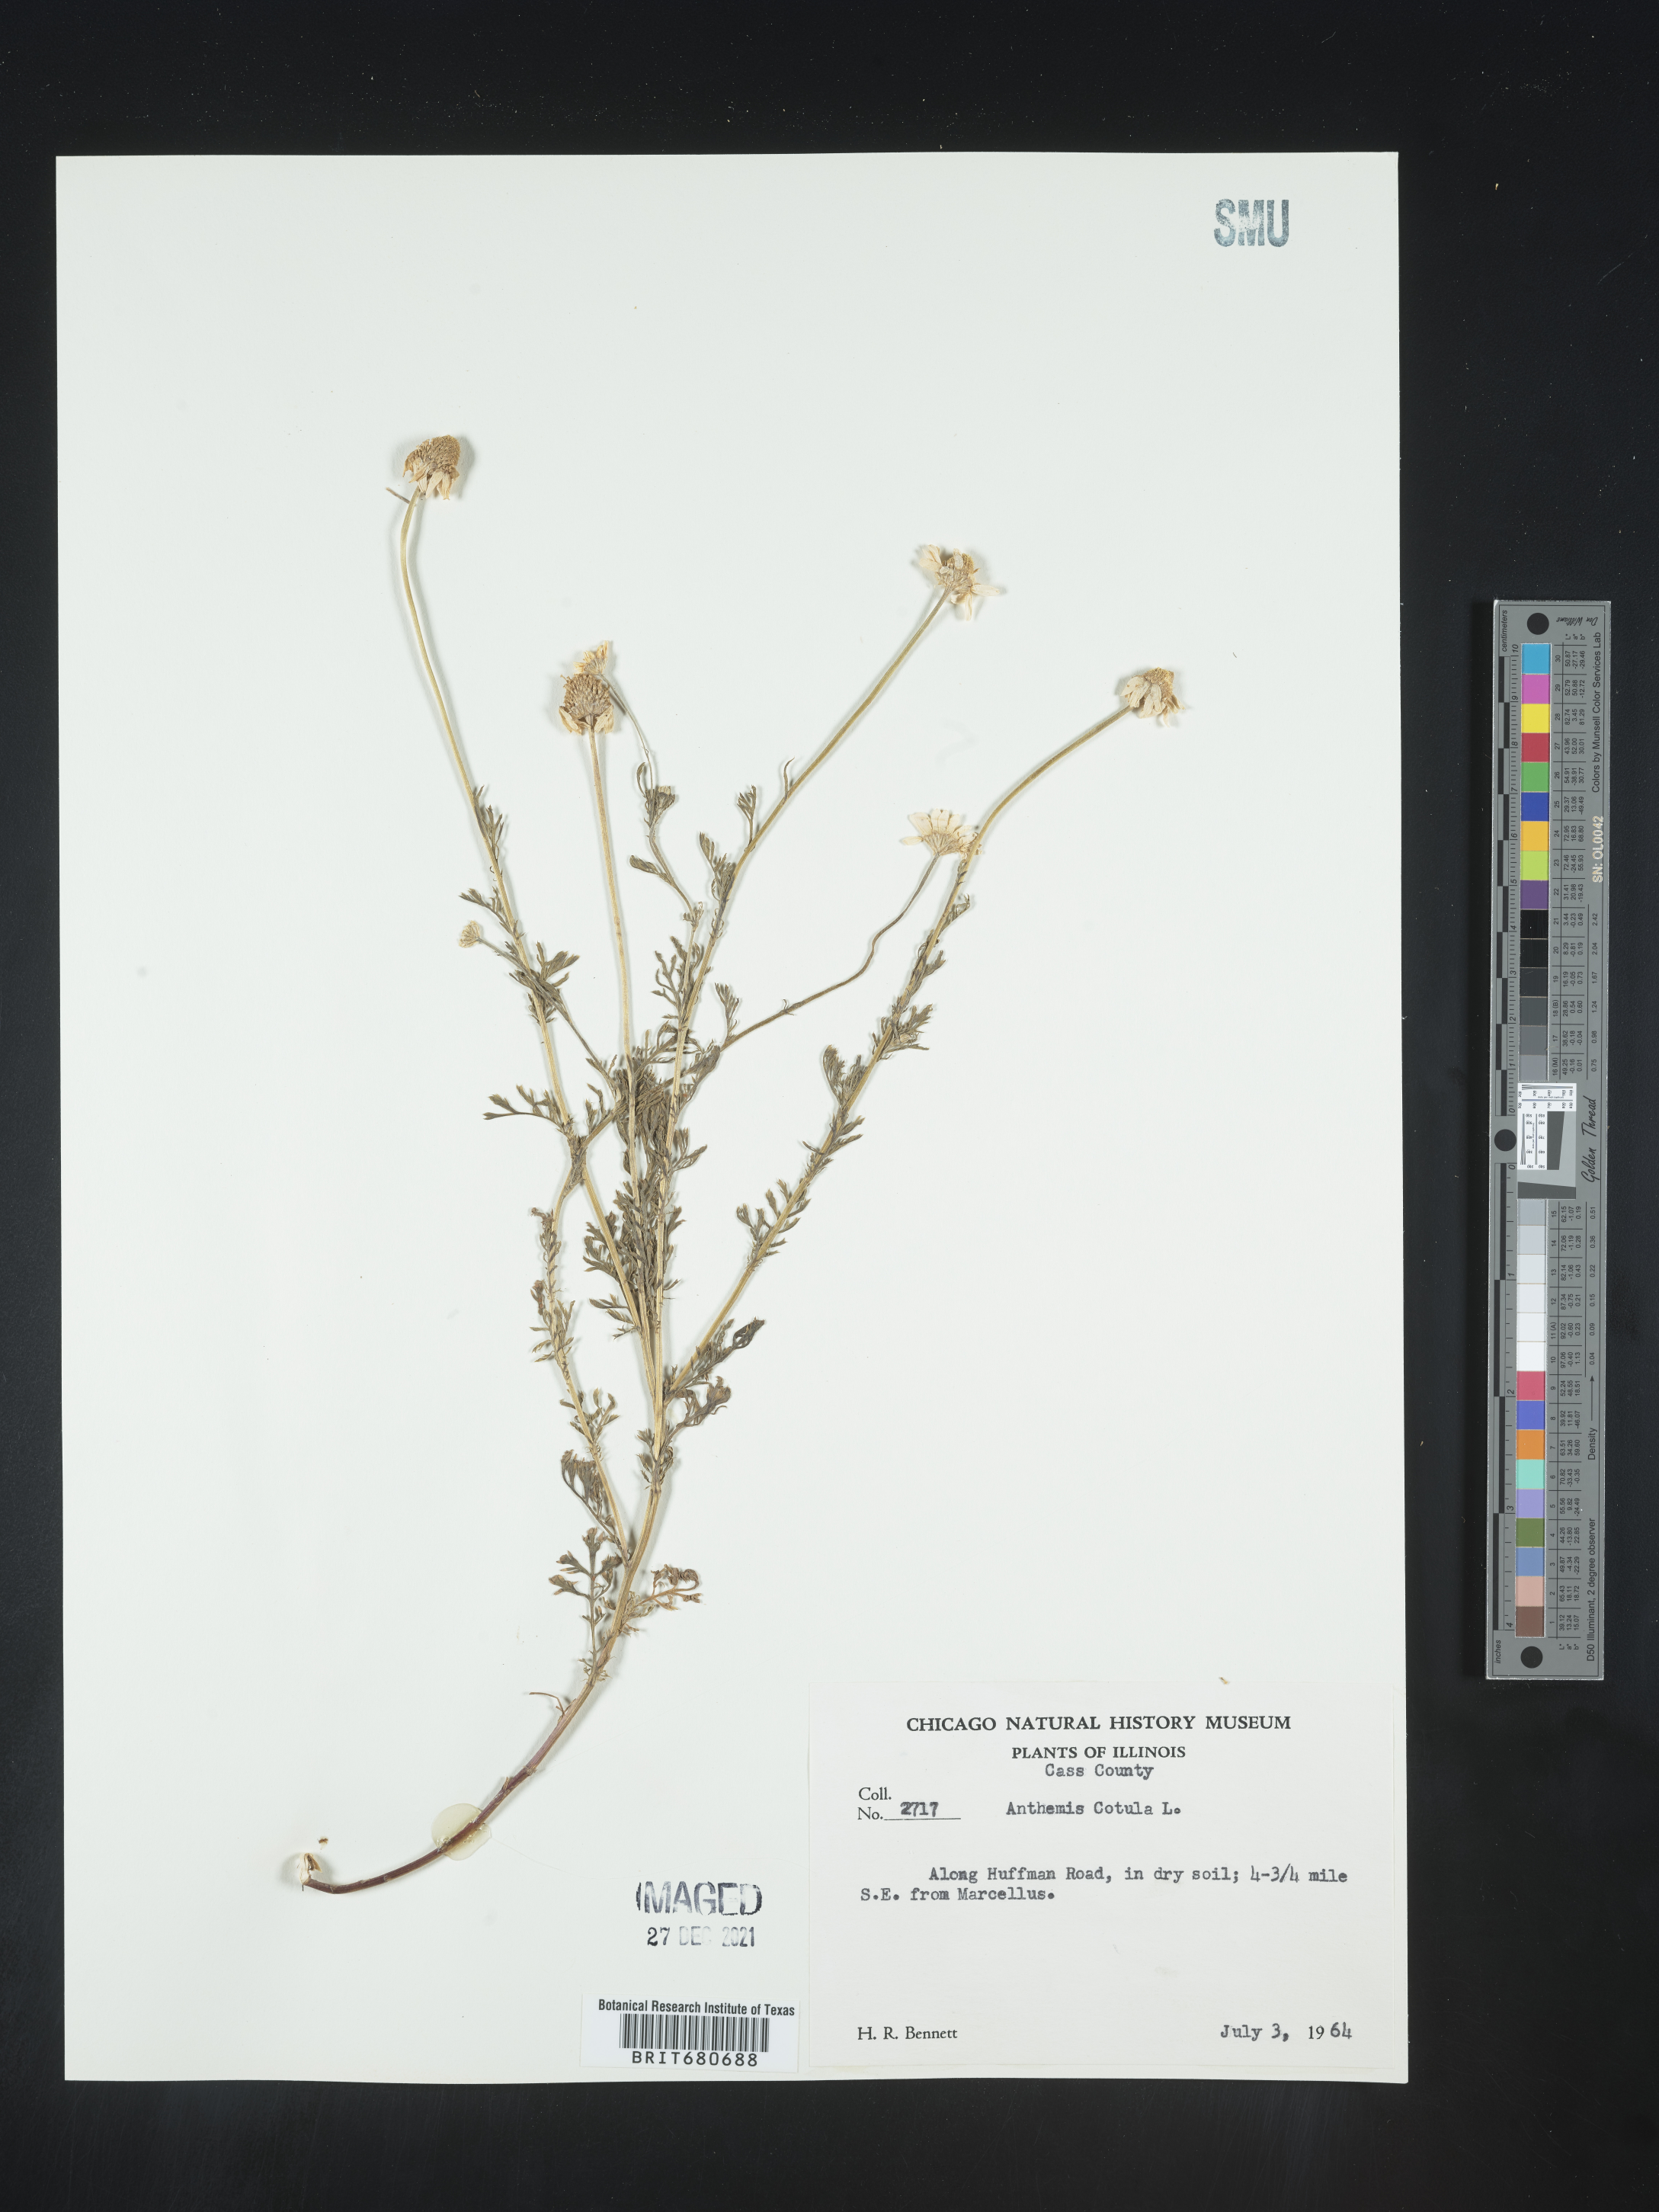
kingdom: Plantae
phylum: Tracheophyta
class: Magnoliopsida
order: Asterales
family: Asteraceae
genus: Anthemis
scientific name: Anthemis cotula
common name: Stinking chamomile
